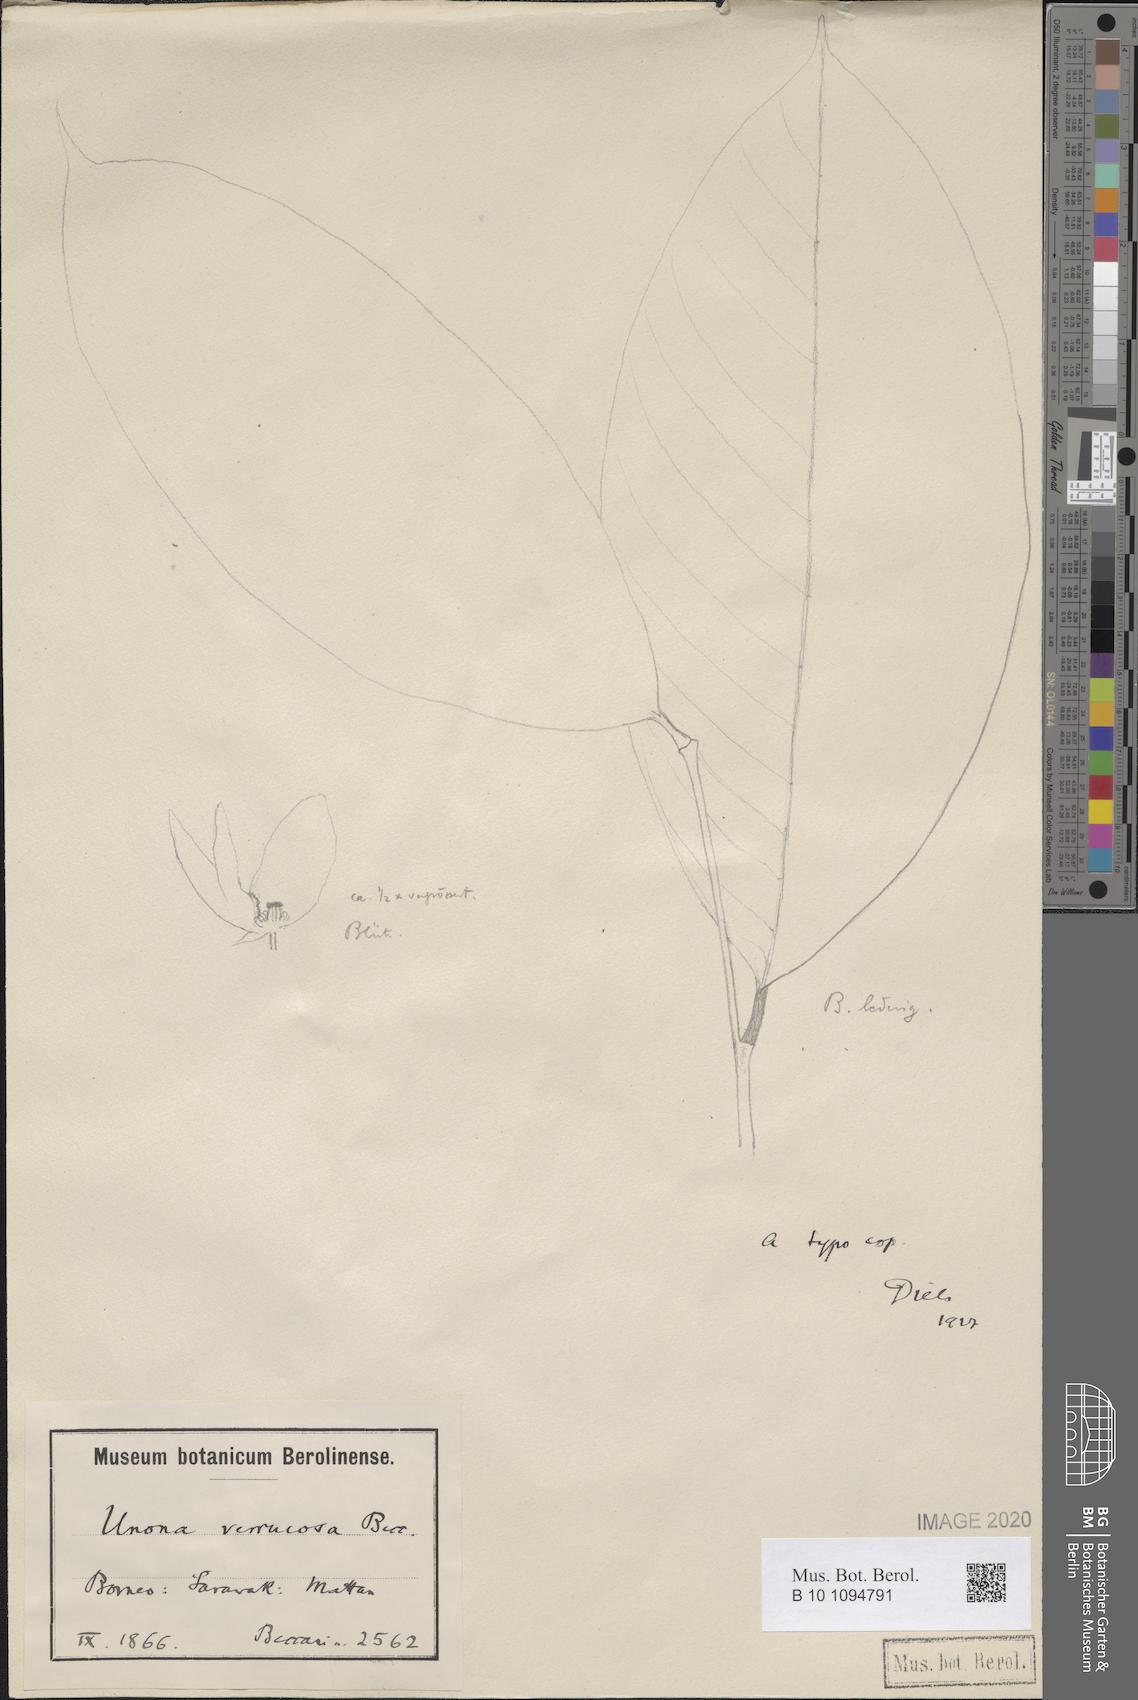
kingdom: Plantae
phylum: Tracheophyta
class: Magnoliopsida
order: Magnoliales
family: Annonaceae
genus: Meiogyne
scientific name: Meiogyne beccarii
